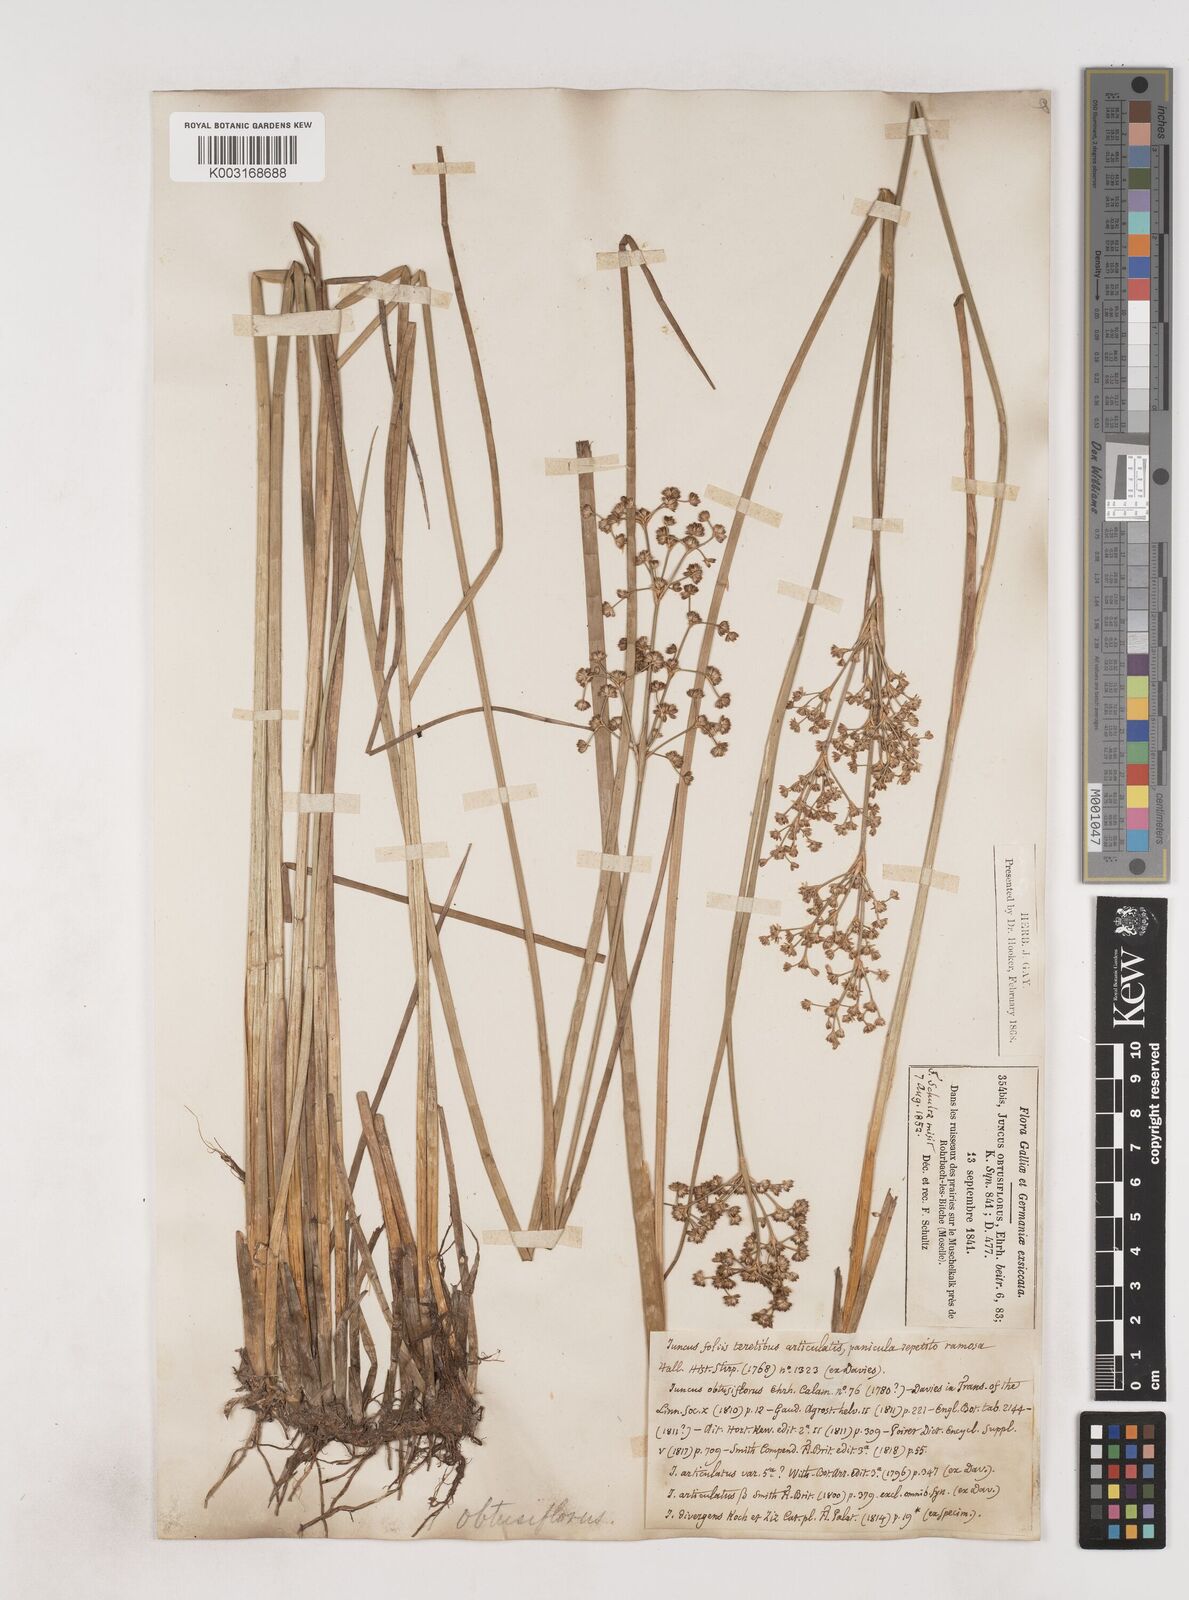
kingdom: Plantae
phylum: Tracheophyta
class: Liliopsida
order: Poales
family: Juncaceae
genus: Juncus
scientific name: Juncus subnodulosus
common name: Blunt-flowered rush
